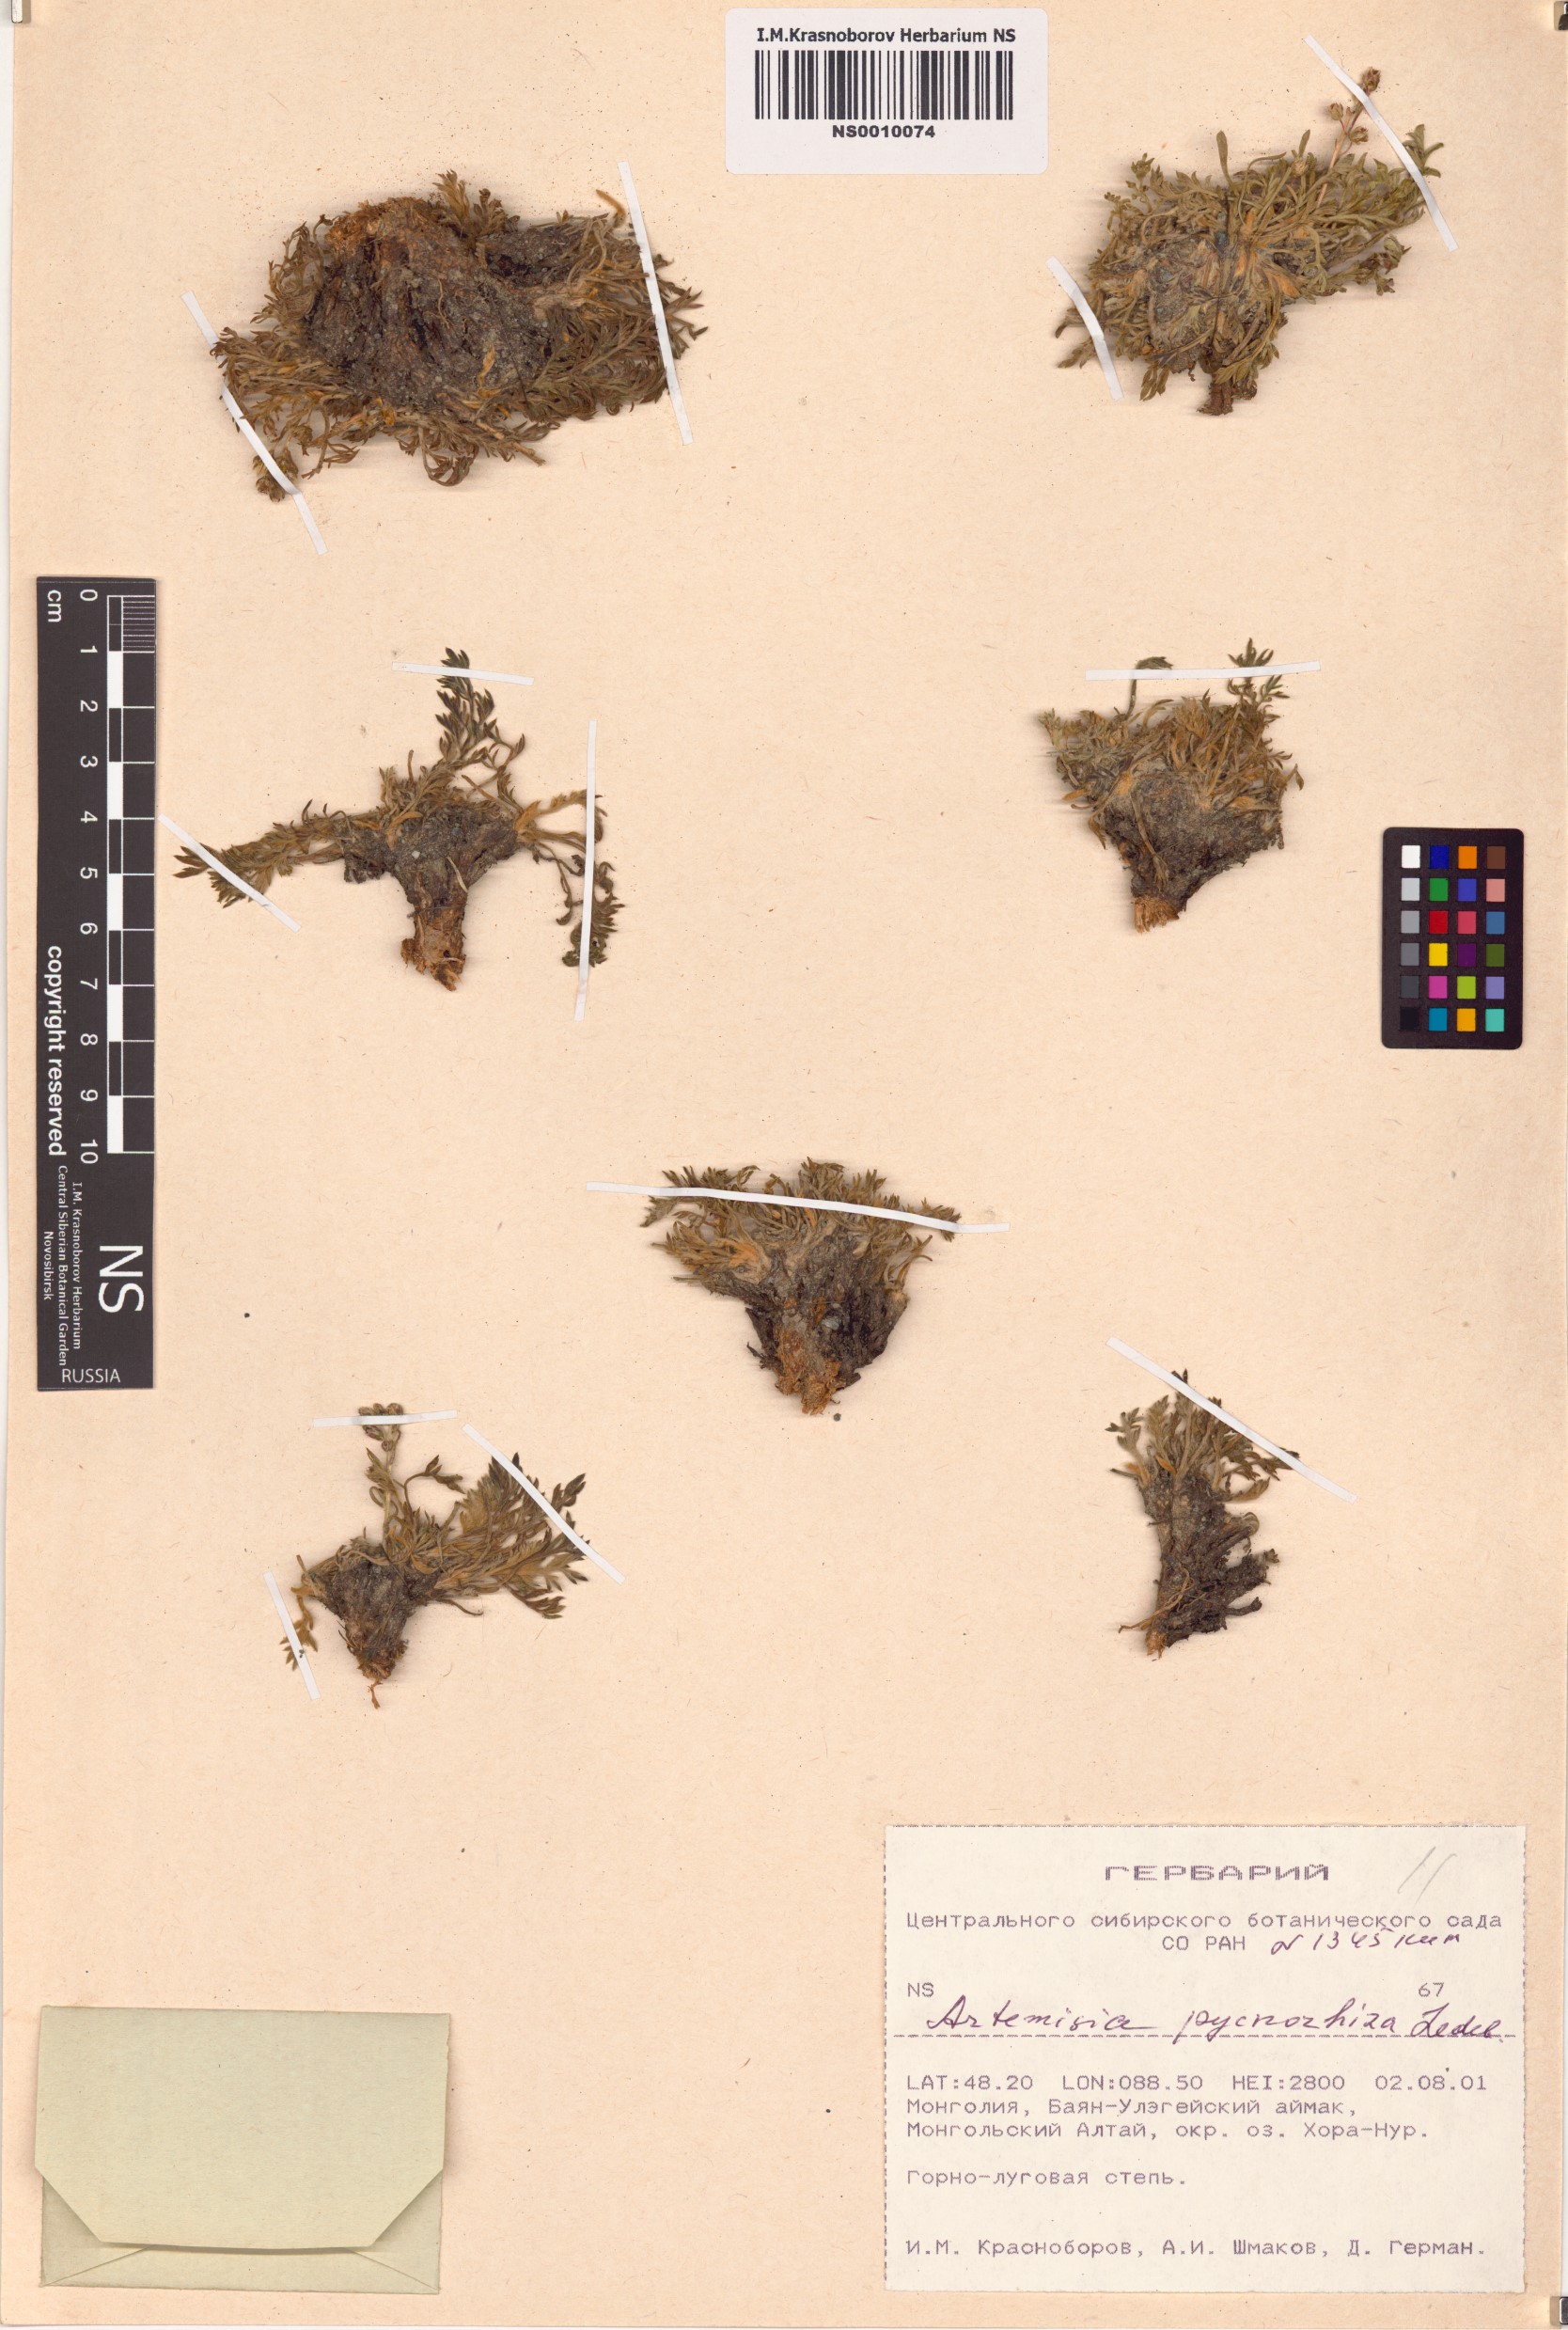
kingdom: Plantae
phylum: Tracheophyta
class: Magnoliopsida
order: Asterales
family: Asteraceae
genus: Artemisia
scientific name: Artemisia pycnorrhiza
